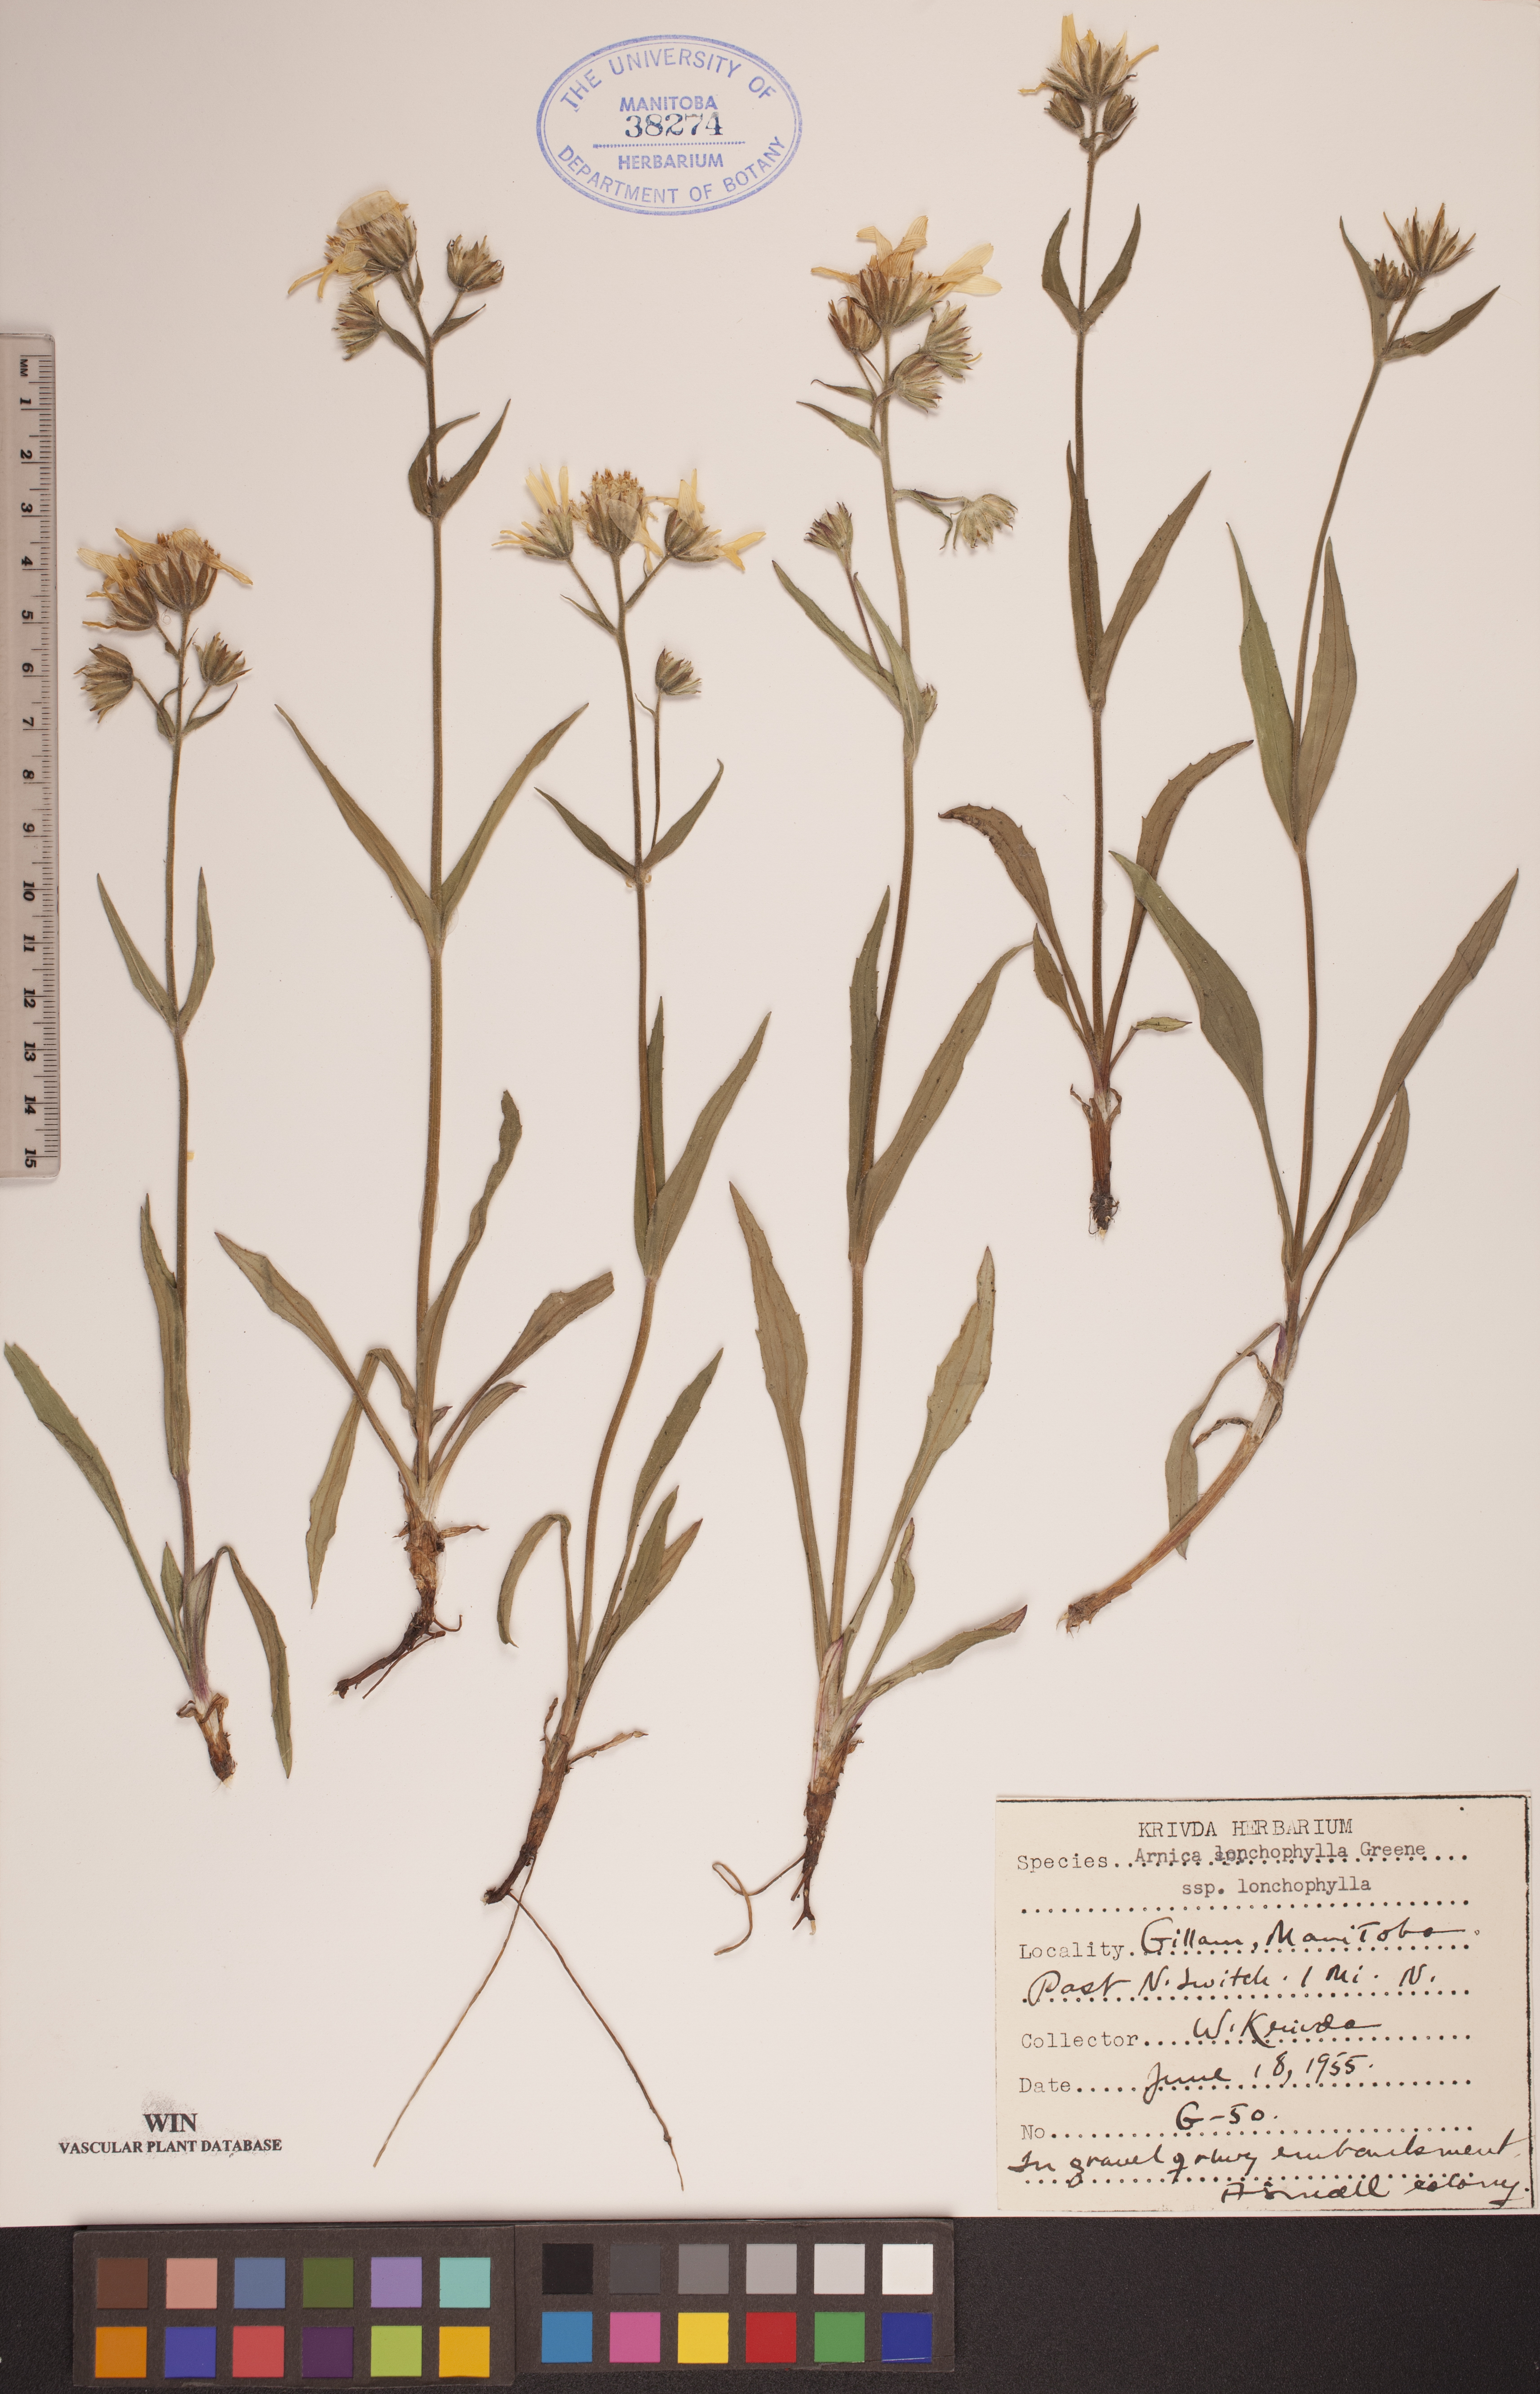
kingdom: Plantae
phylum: Tracheophyta
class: Magnoliopsida
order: Asterales
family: Asteraceae
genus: Arnica
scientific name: Arnica lonchophylla
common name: Northern arnica
